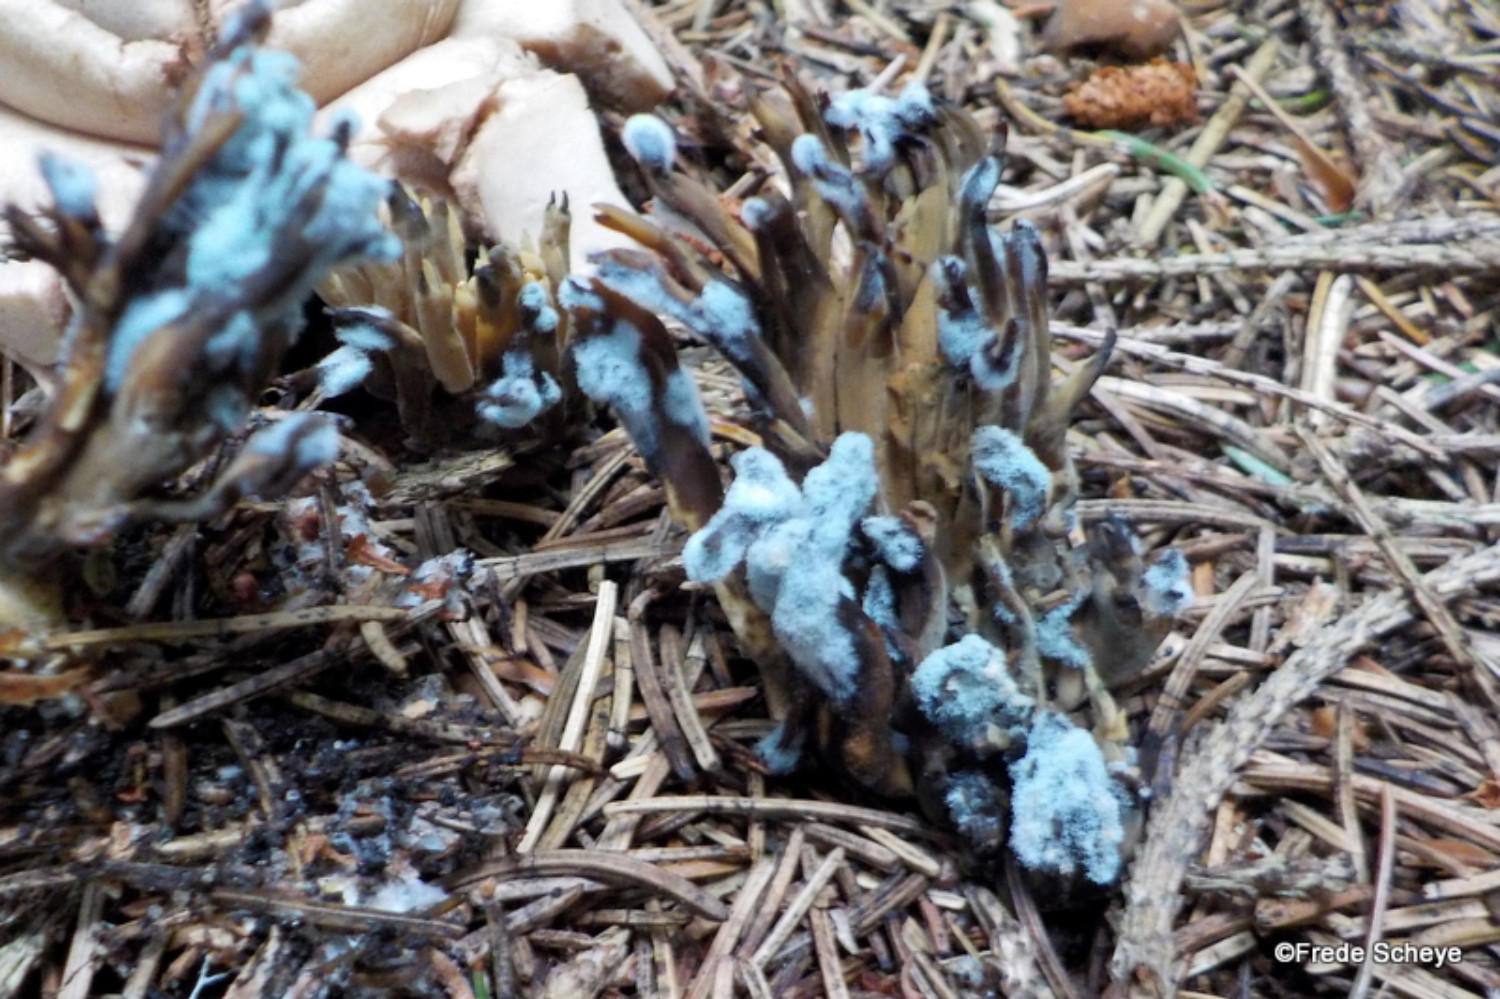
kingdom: Fungi
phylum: Ascomycota
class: Eurotiomycetes
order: Eurotiales
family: Aspergillaceae
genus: Penicillium
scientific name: Penicillium
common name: penselskimmel
